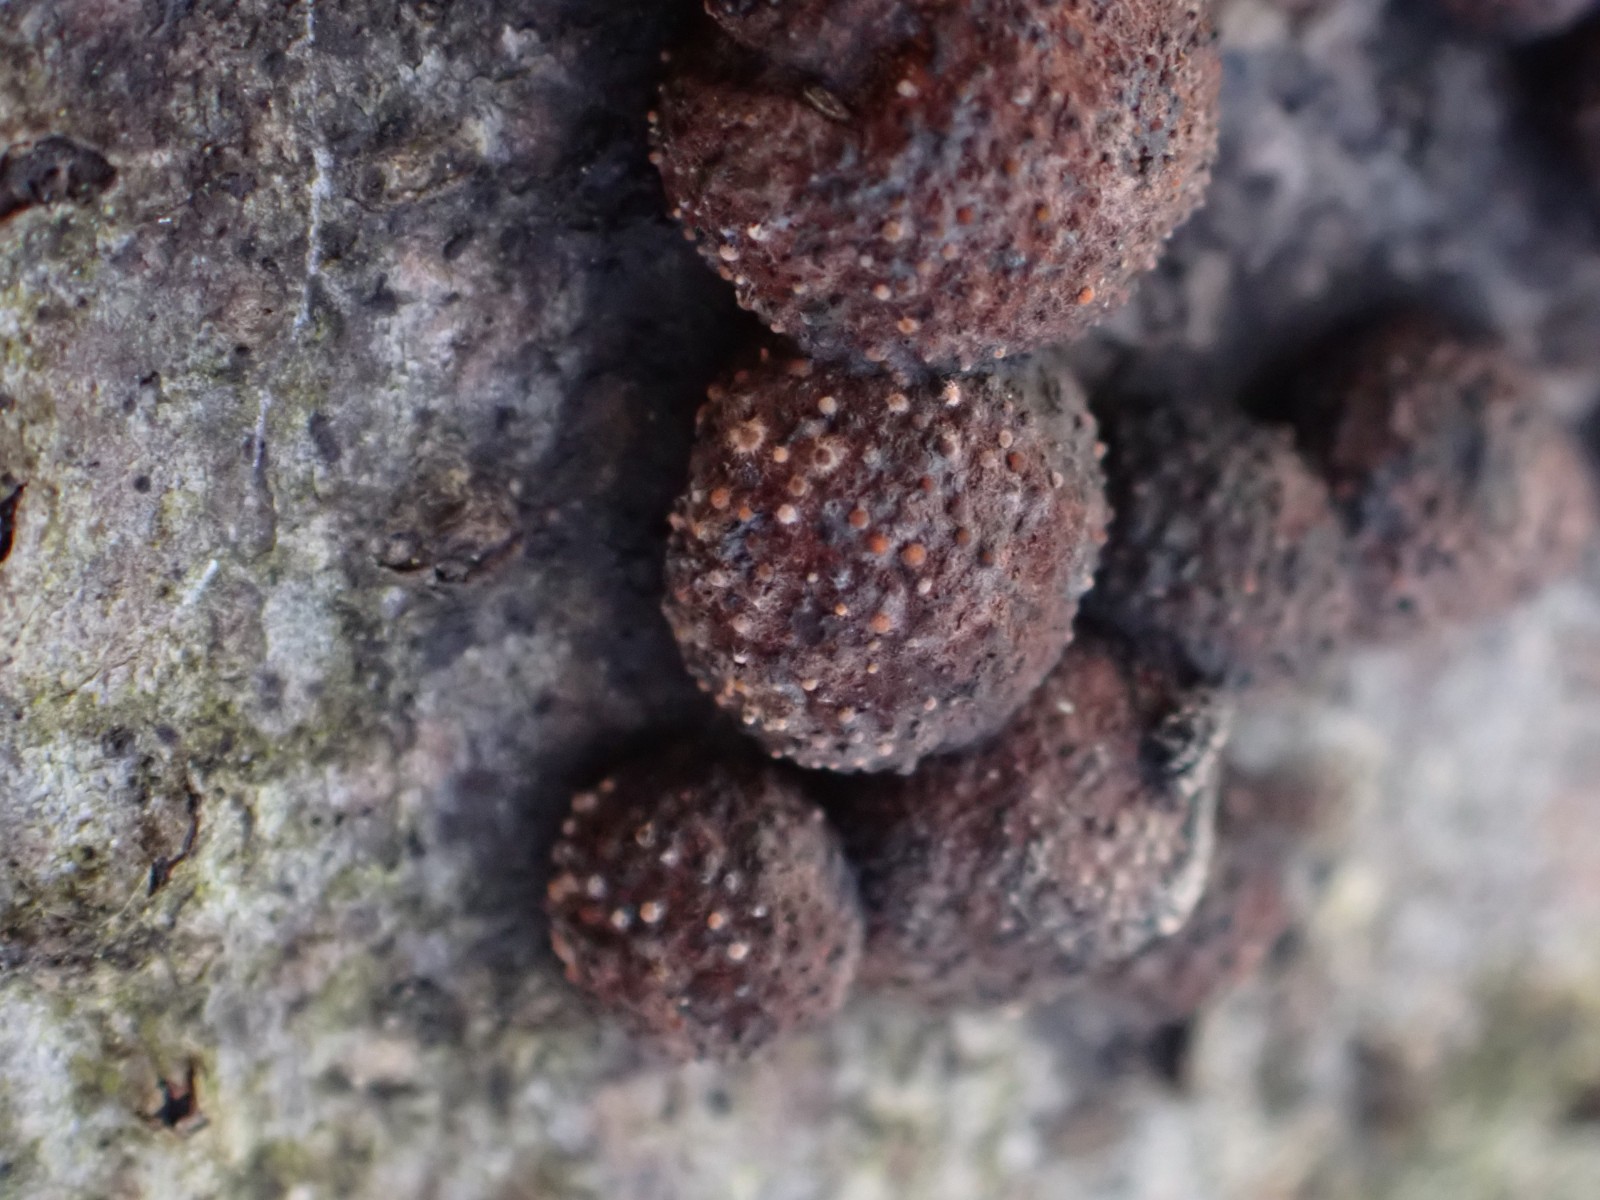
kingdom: Fungi
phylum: Ascomycota
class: Sordariomycetes
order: Hypocreales
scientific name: Hypocreales
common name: kødkerneordenen
